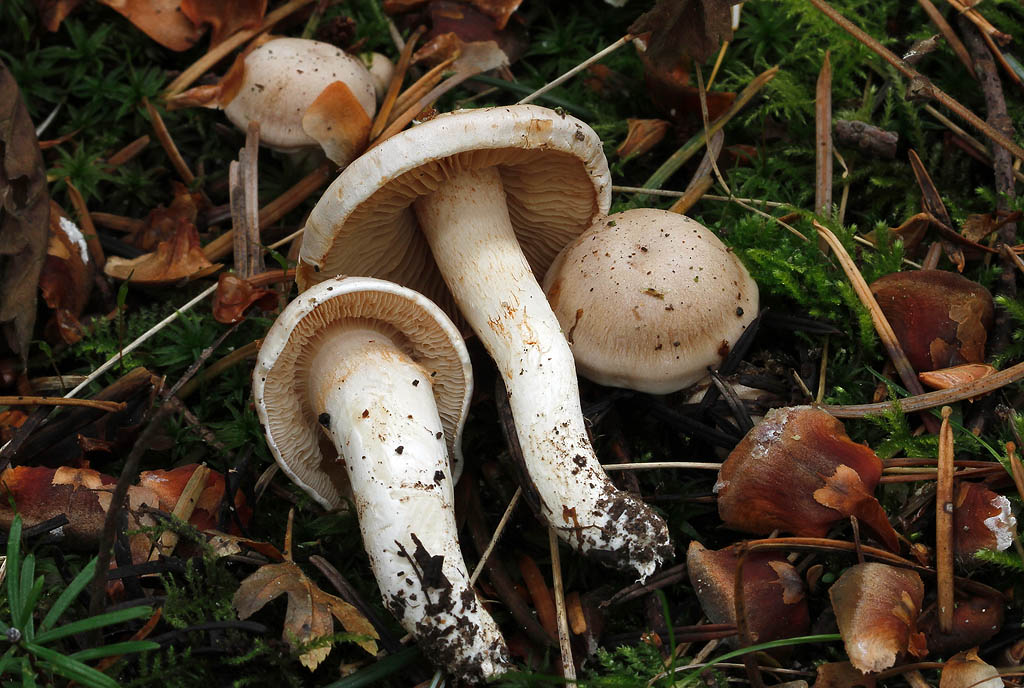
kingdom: Fungi
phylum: Basidiomycota
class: Agaricomycetes
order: Agaricales
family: Cortinariaceae
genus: Thaxterogaster
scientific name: Thaxterogaster leucoluteolus
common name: isabella slørhat
